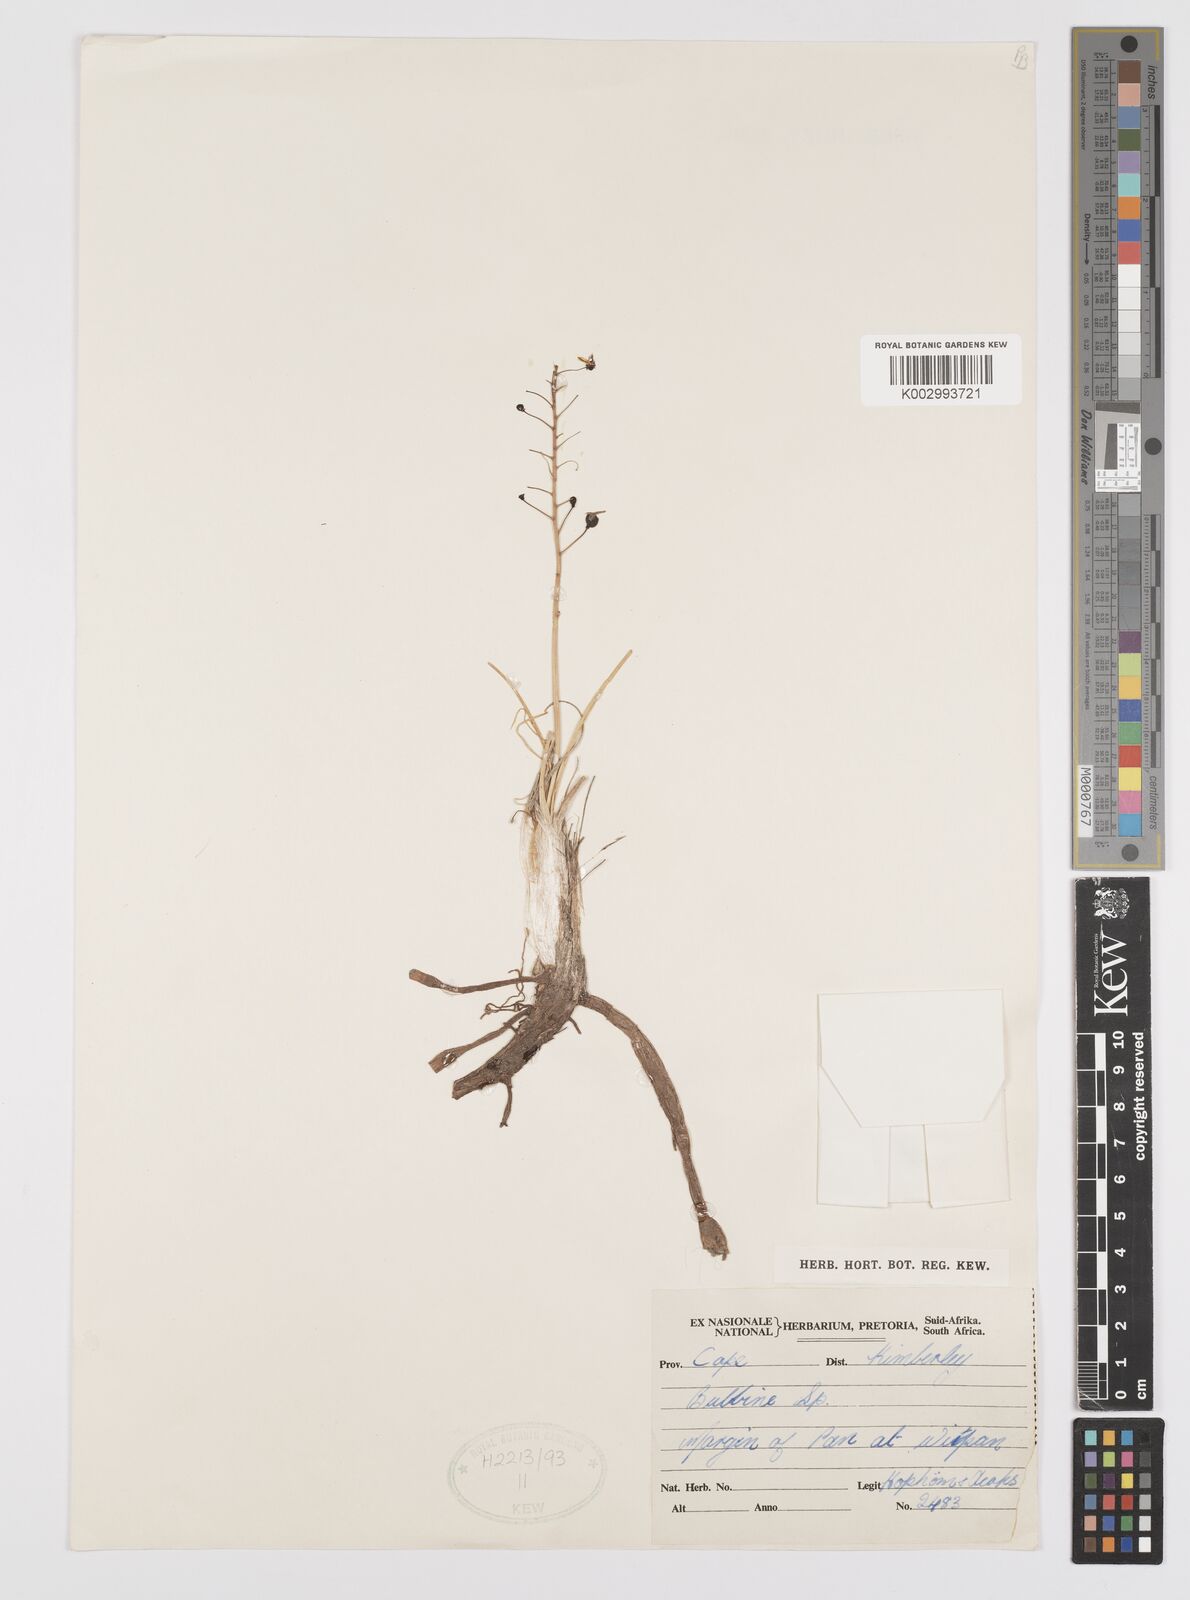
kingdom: Plantae
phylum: Tracheophyta
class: Liliopsida
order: Asparagales
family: Amaryllidaceae
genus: Crinum
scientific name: Crinum
